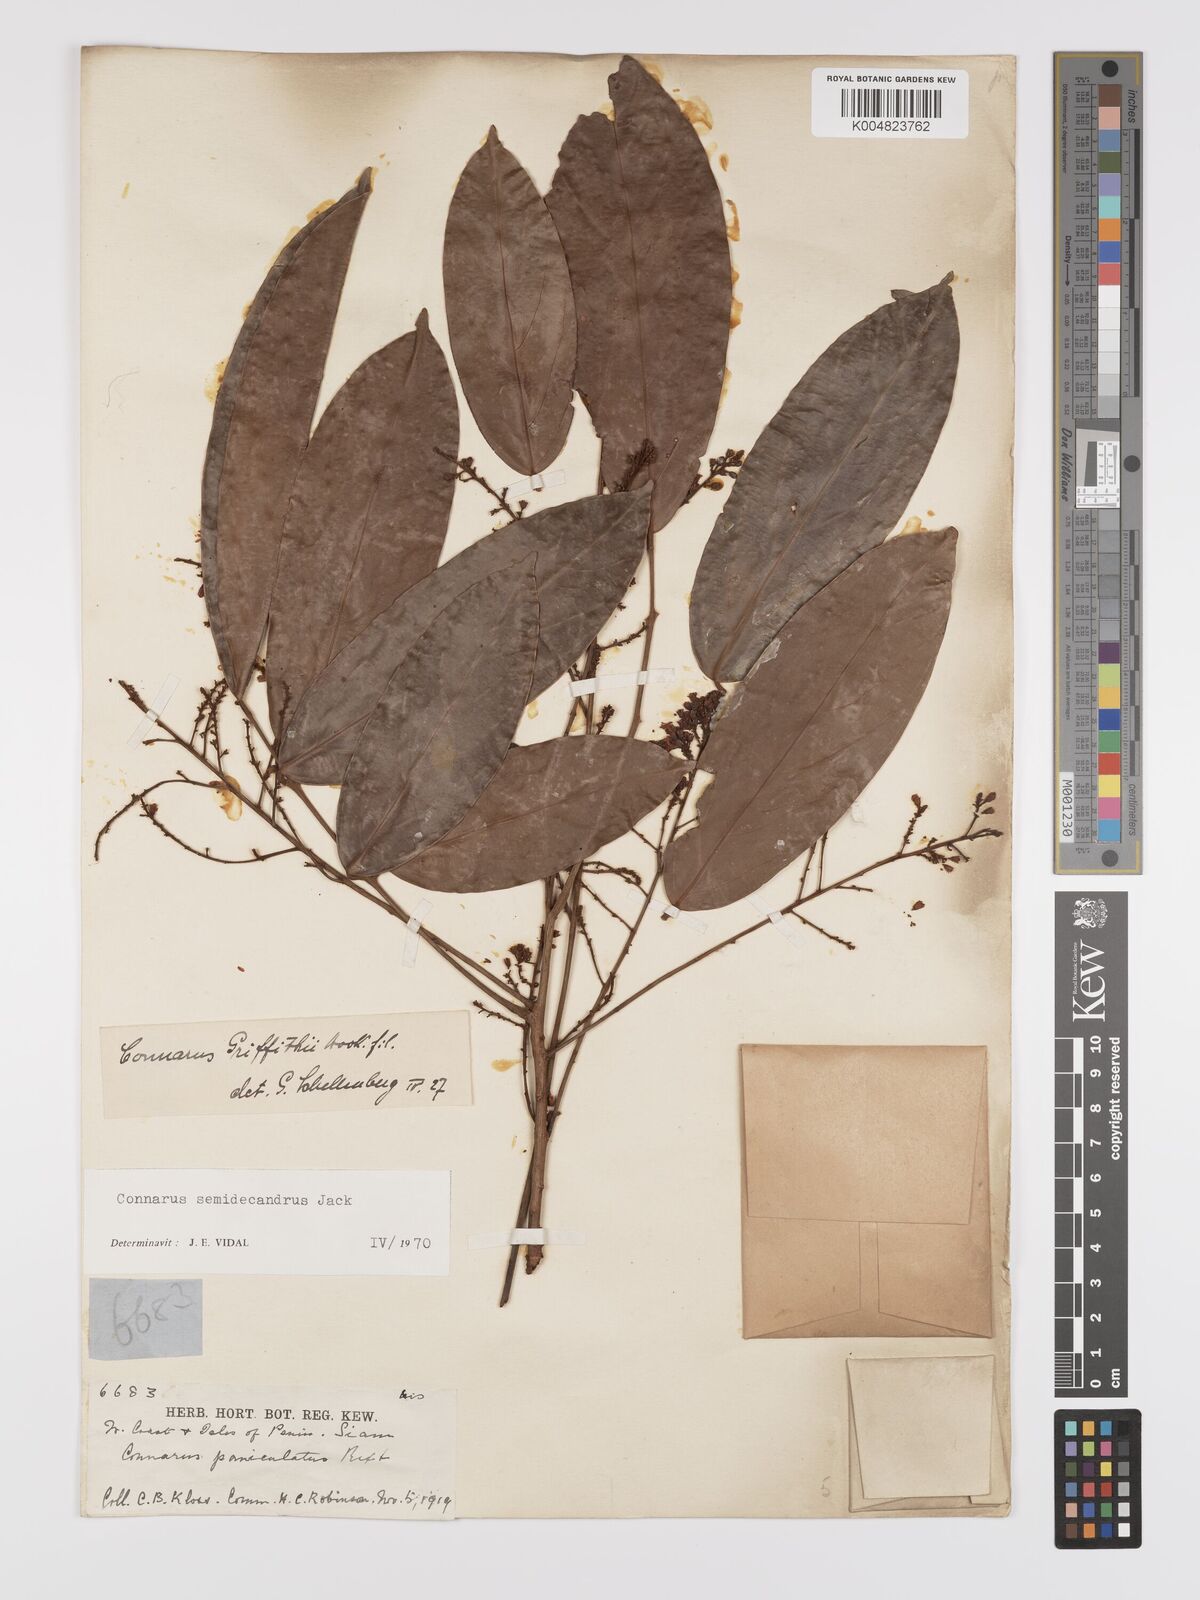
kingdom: Plantae
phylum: Tracheophyta
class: Magnoliopsida
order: Oxalidales
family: Connaraceae
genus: Connarus
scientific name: Connarus semidecandrus
